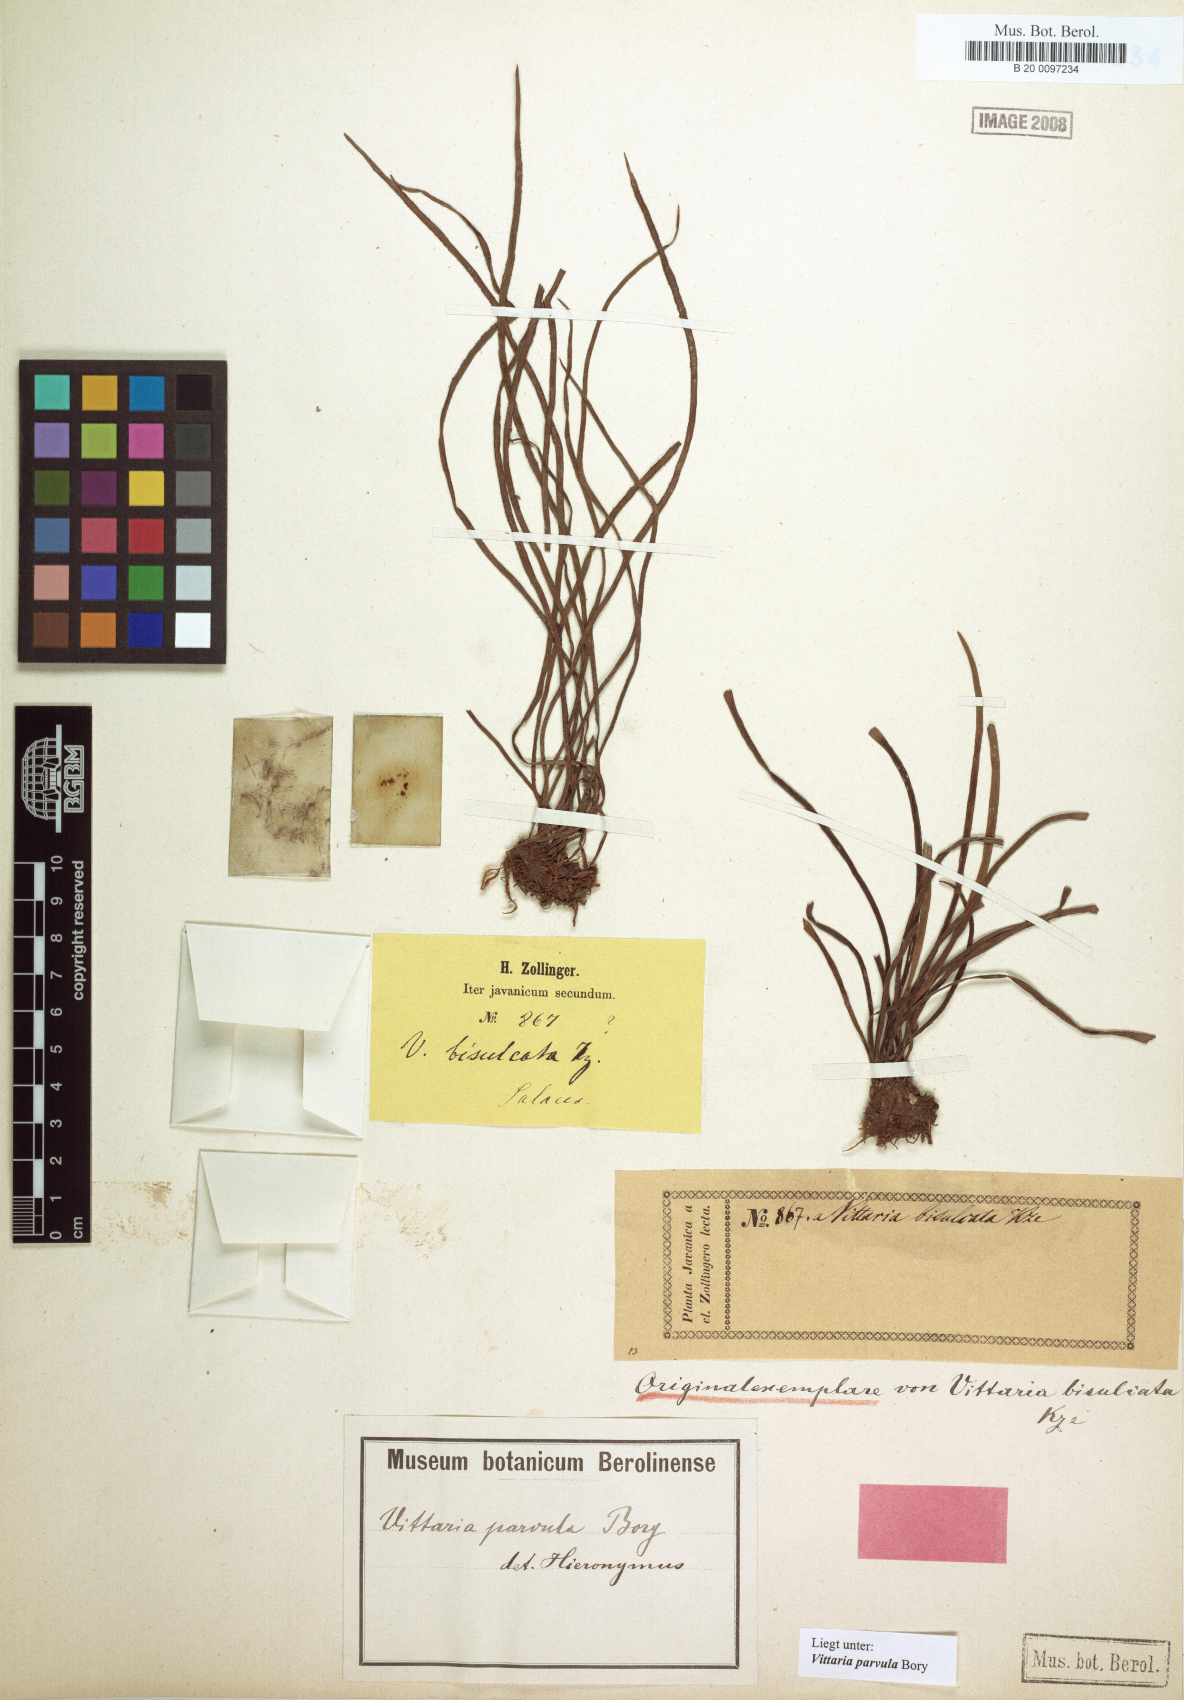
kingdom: Plantae
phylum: Tracheophyta
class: Polypodiopsida
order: Polypodiales
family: Pteridaceae
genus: Haplopteris
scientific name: Haplopteris elongata
